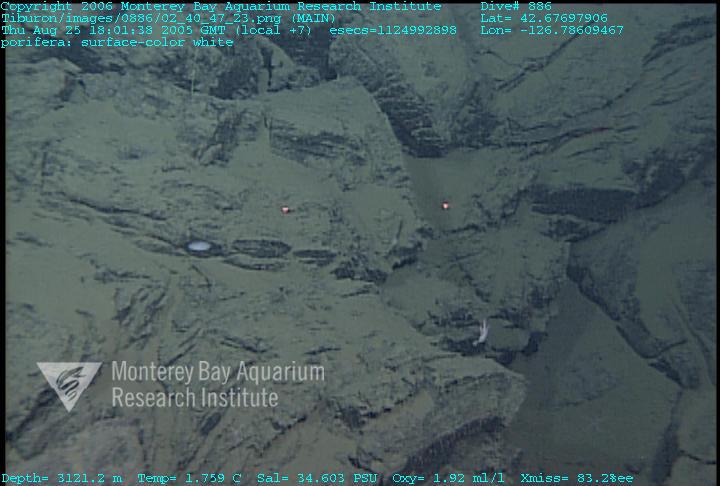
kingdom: Animalia
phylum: Porifera
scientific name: Porifera
